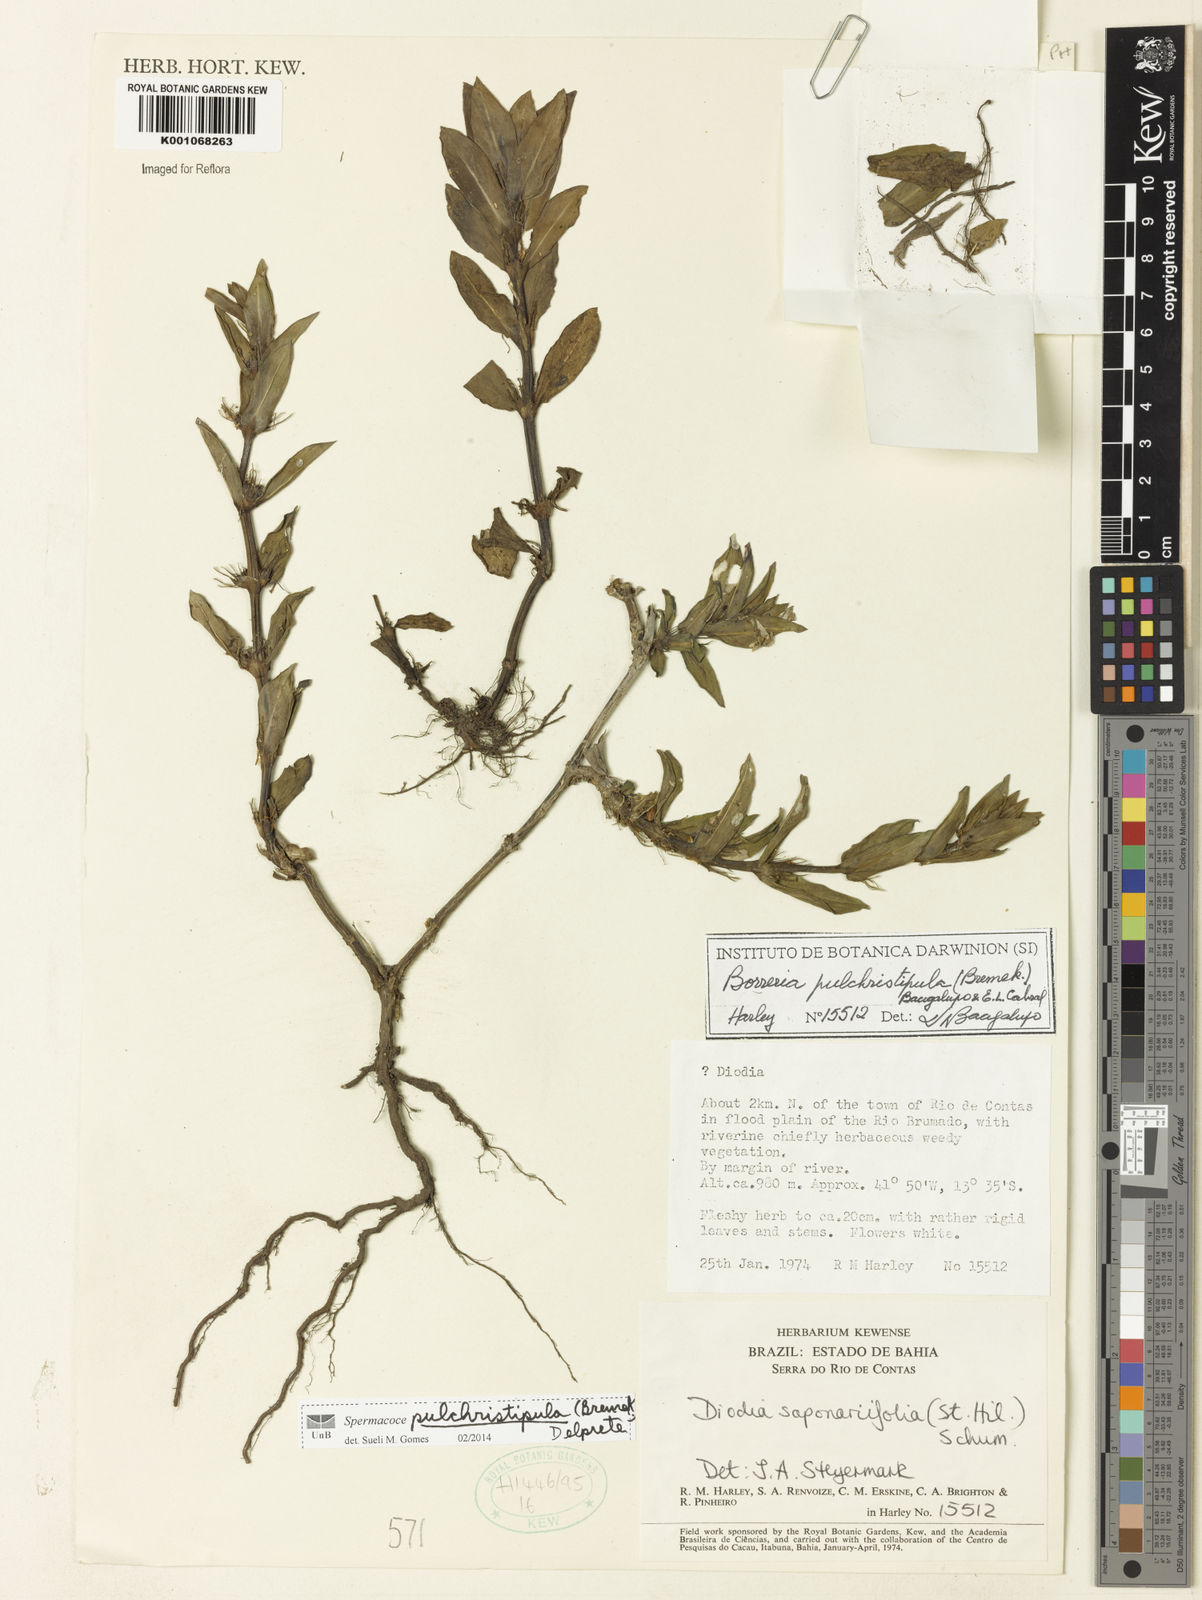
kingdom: Plantae
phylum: Tracheophyta
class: Magnoliopsida
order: Gentianales
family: Rubiaceae
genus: Spermacoce
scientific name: Spermacoce pulchristipula
